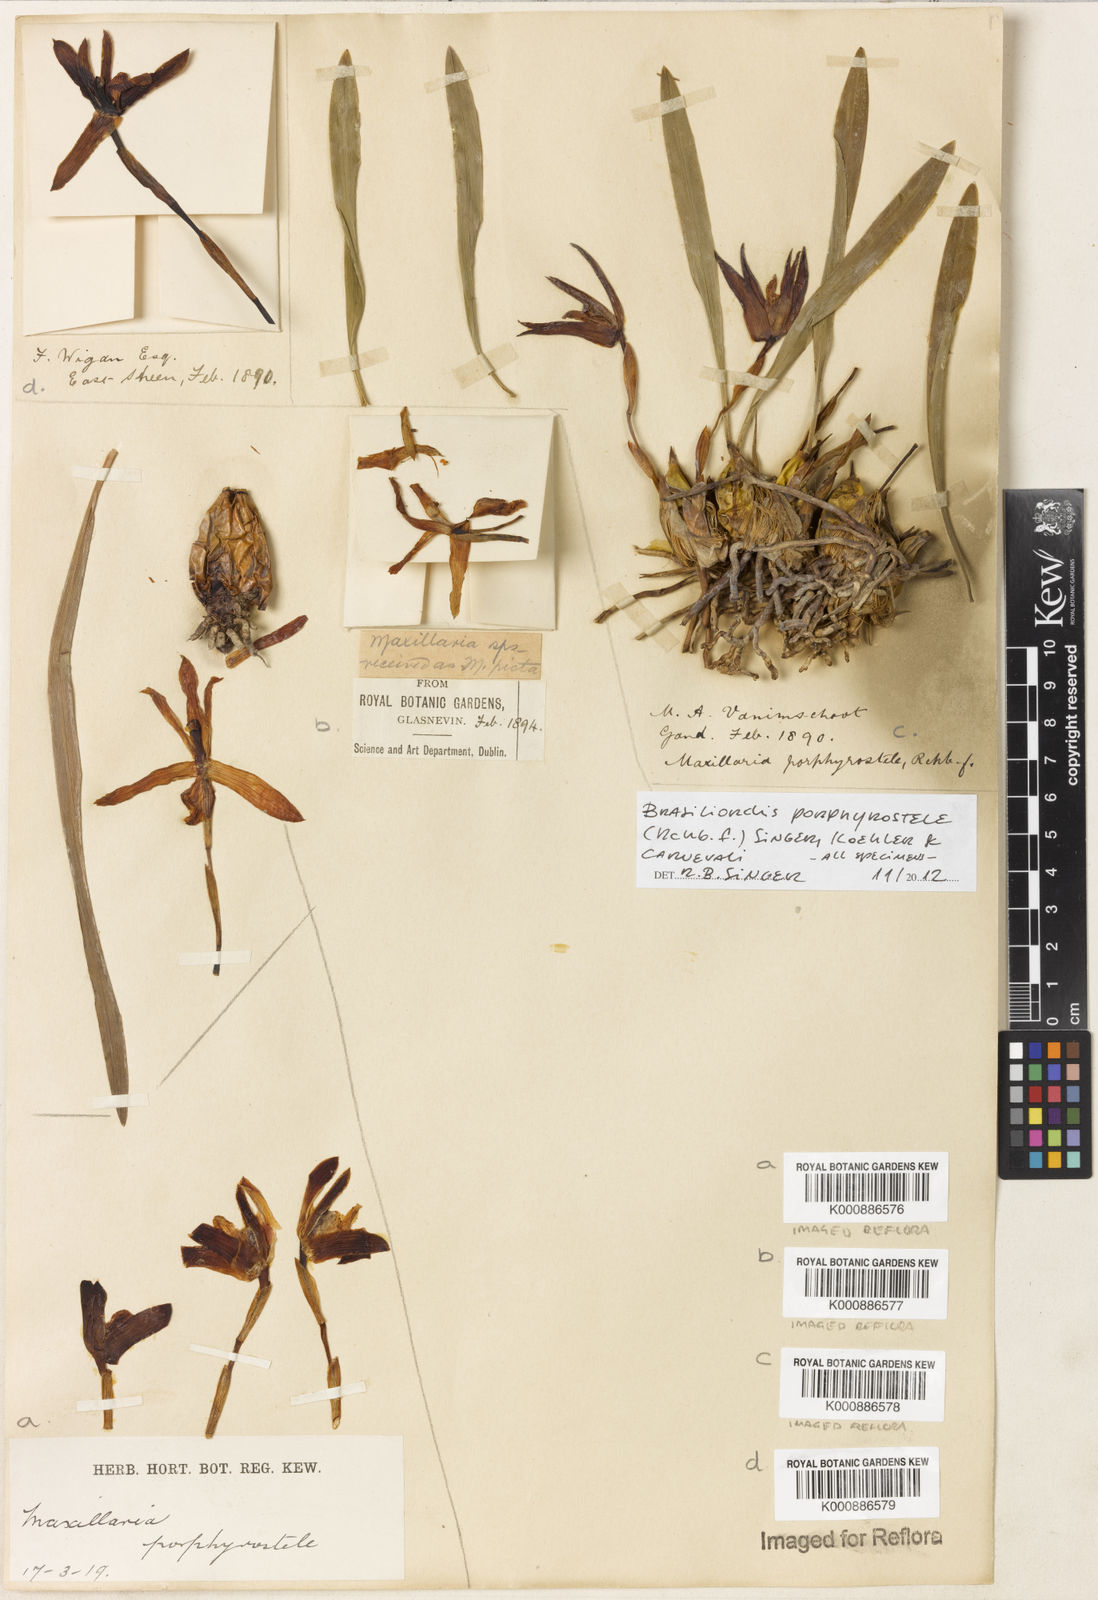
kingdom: Plantae
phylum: Tracheophyta
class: Liliopsida
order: Asparagales
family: Orchidaceae
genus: Maxillaria
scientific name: Maxillaria porphyrostele
